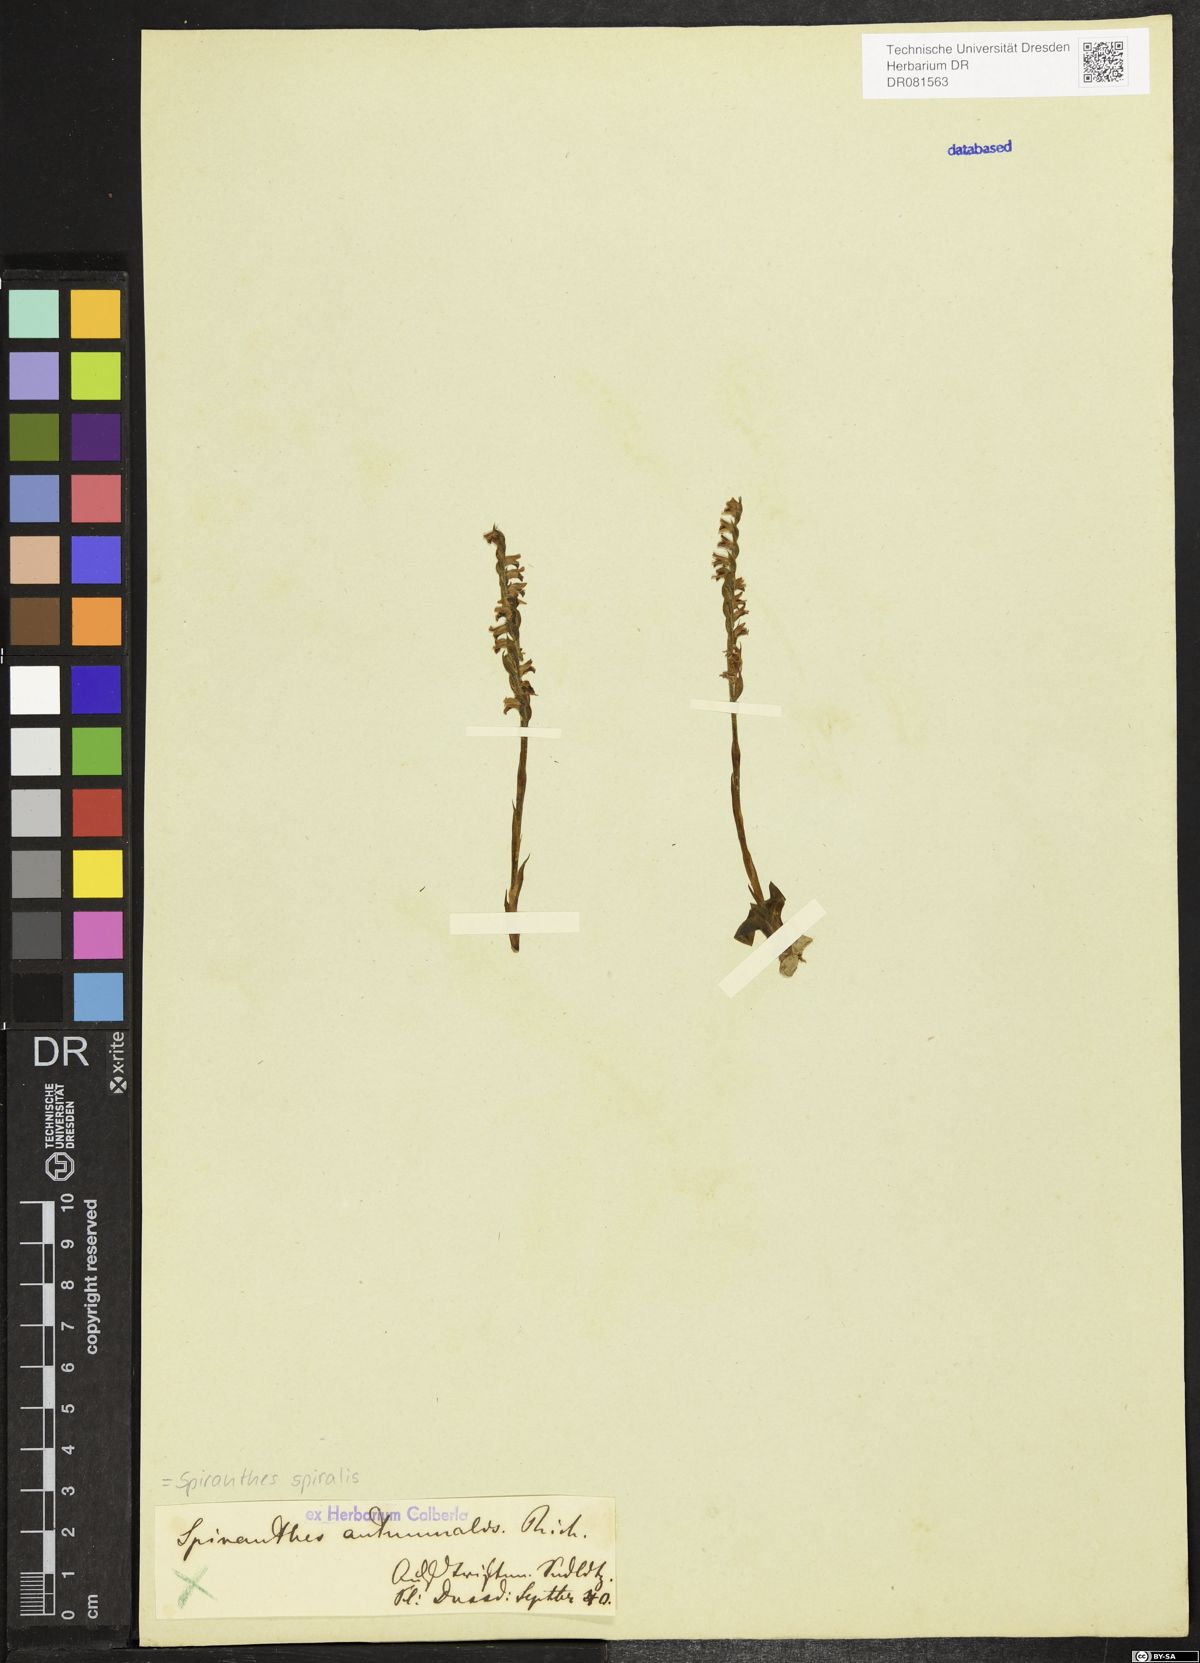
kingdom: Plantae
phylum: Tracheophyta
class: Liliopsida
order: Asparagales
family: Orchidaceae
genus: Spiranthes
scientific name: Spiranthes spiralis
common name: Autumn lady's-tresses
